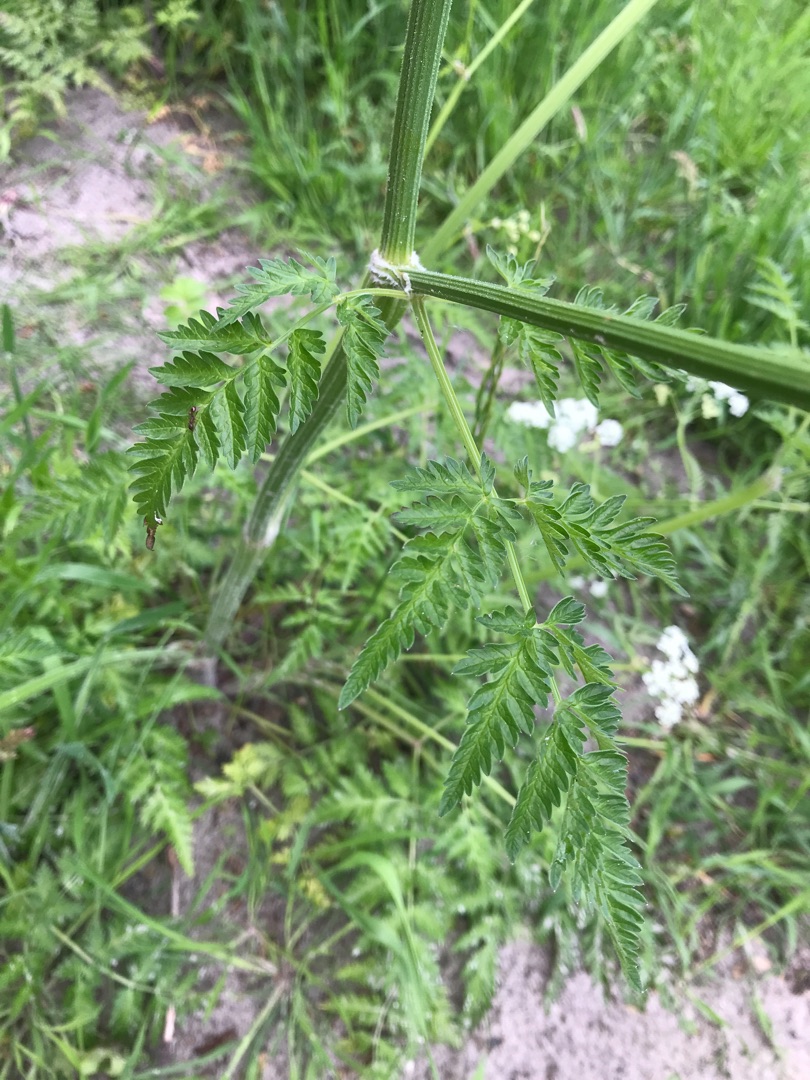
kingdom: Plantae
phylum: Tracheophyta
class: Magnoliopsida
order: Apiales
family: Apiaceae
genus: Anthriscus
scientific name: Anthriscus sylvestris
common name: Vild kørvel
